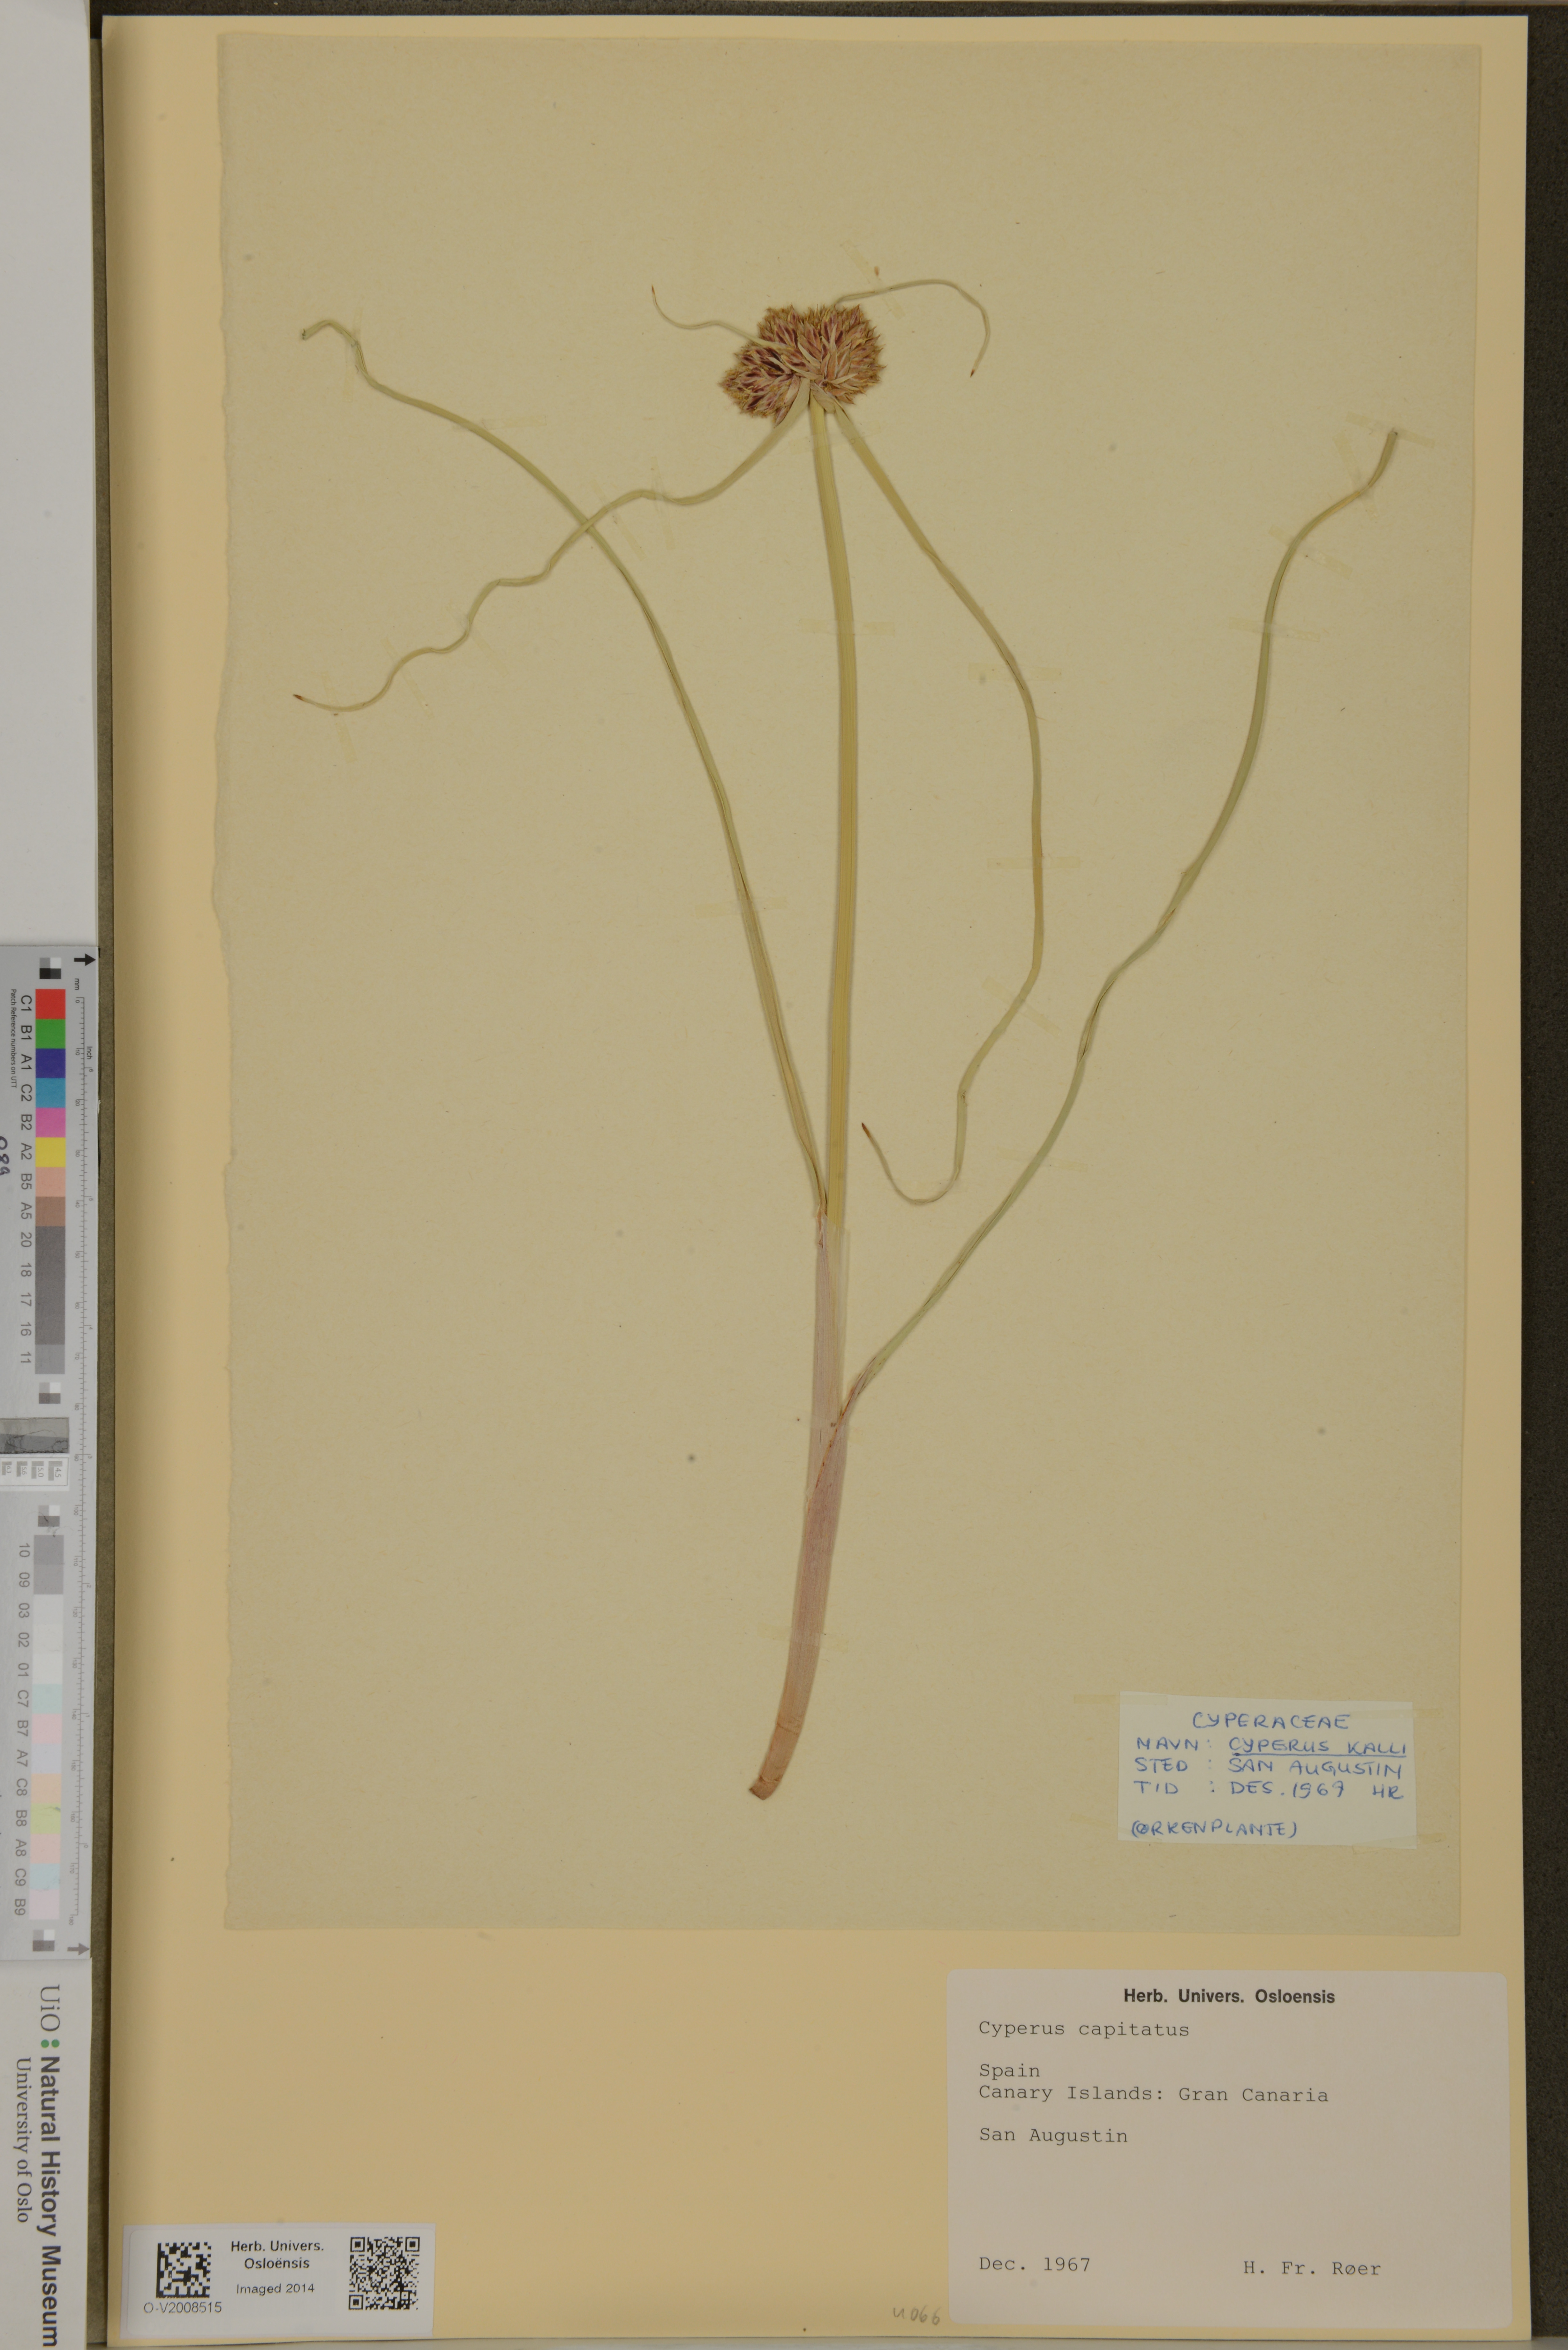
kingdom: Plantae
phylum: Tracheophyta
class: Liliopsida
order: Poales
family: Cyperaceae
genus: Cyperus
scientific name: Cyperus capitatus
